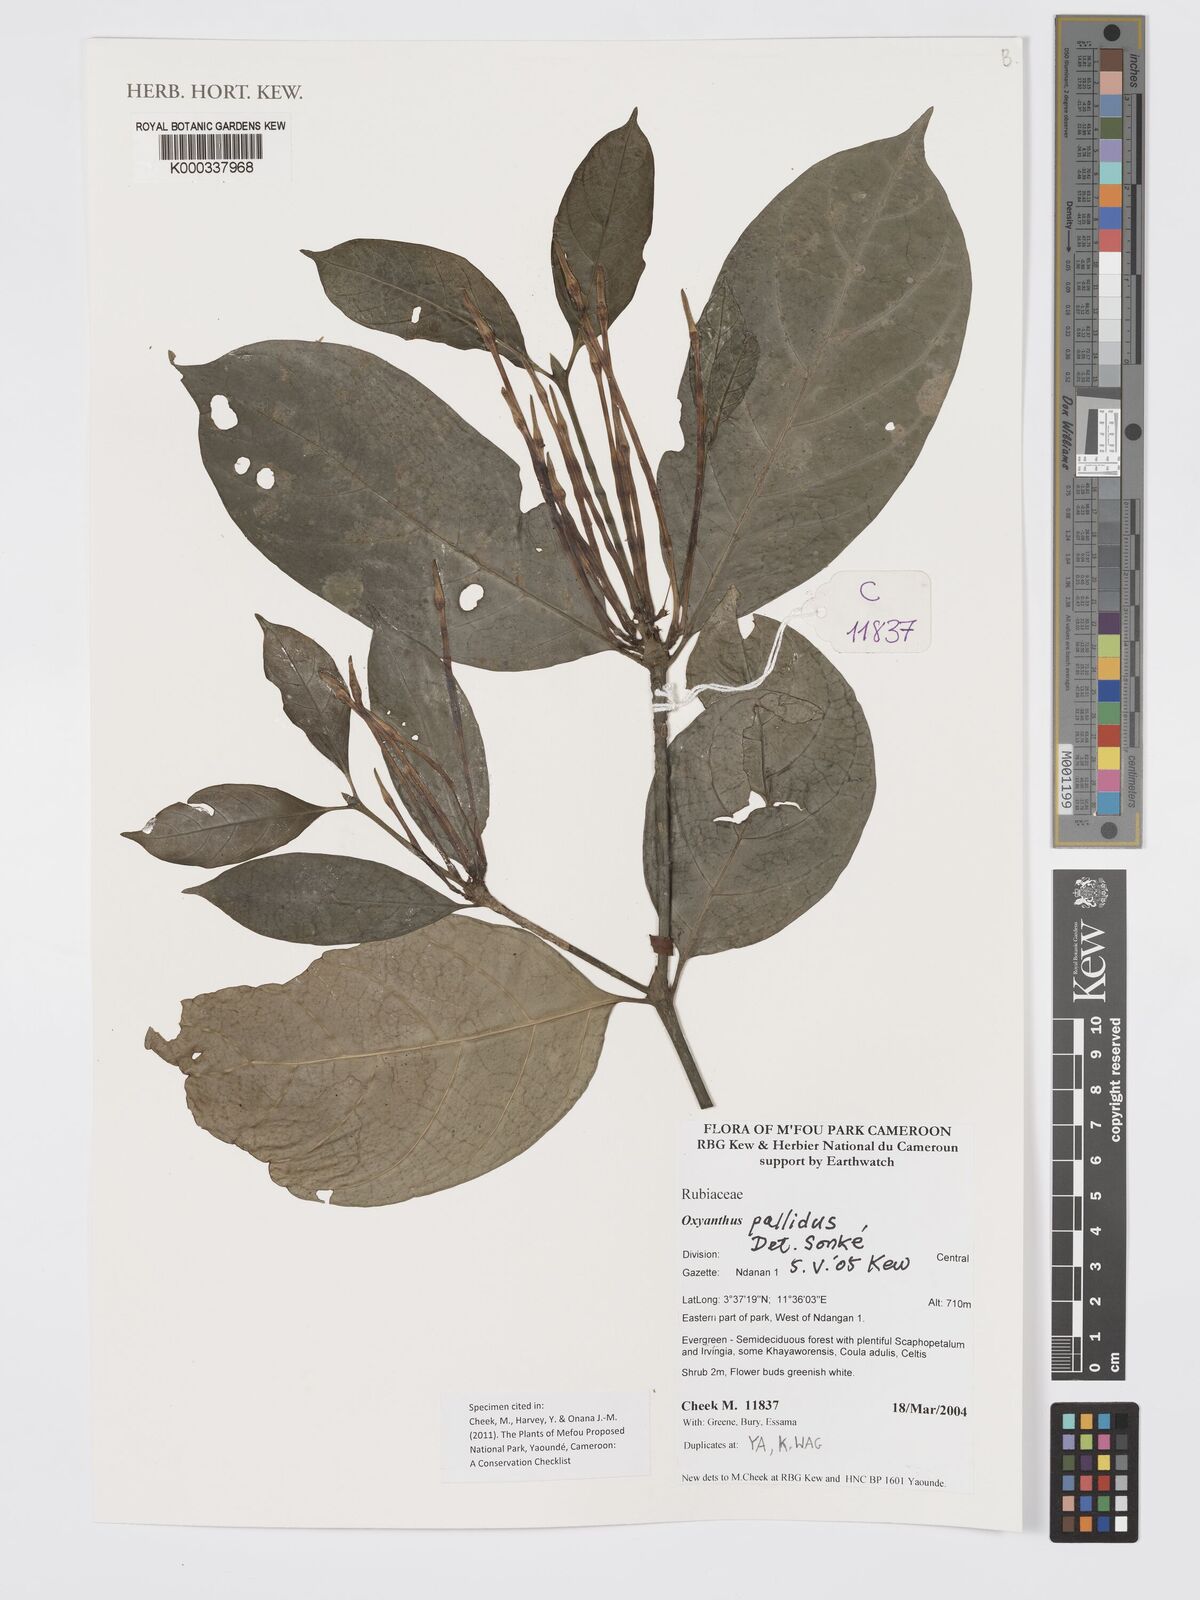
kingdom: Plantae
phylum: Tracheophyta
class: Magnoliopsida
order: Gentianales
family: Rubiaceae
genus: Oxyanthus
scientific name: Oxyanthus pallidus
